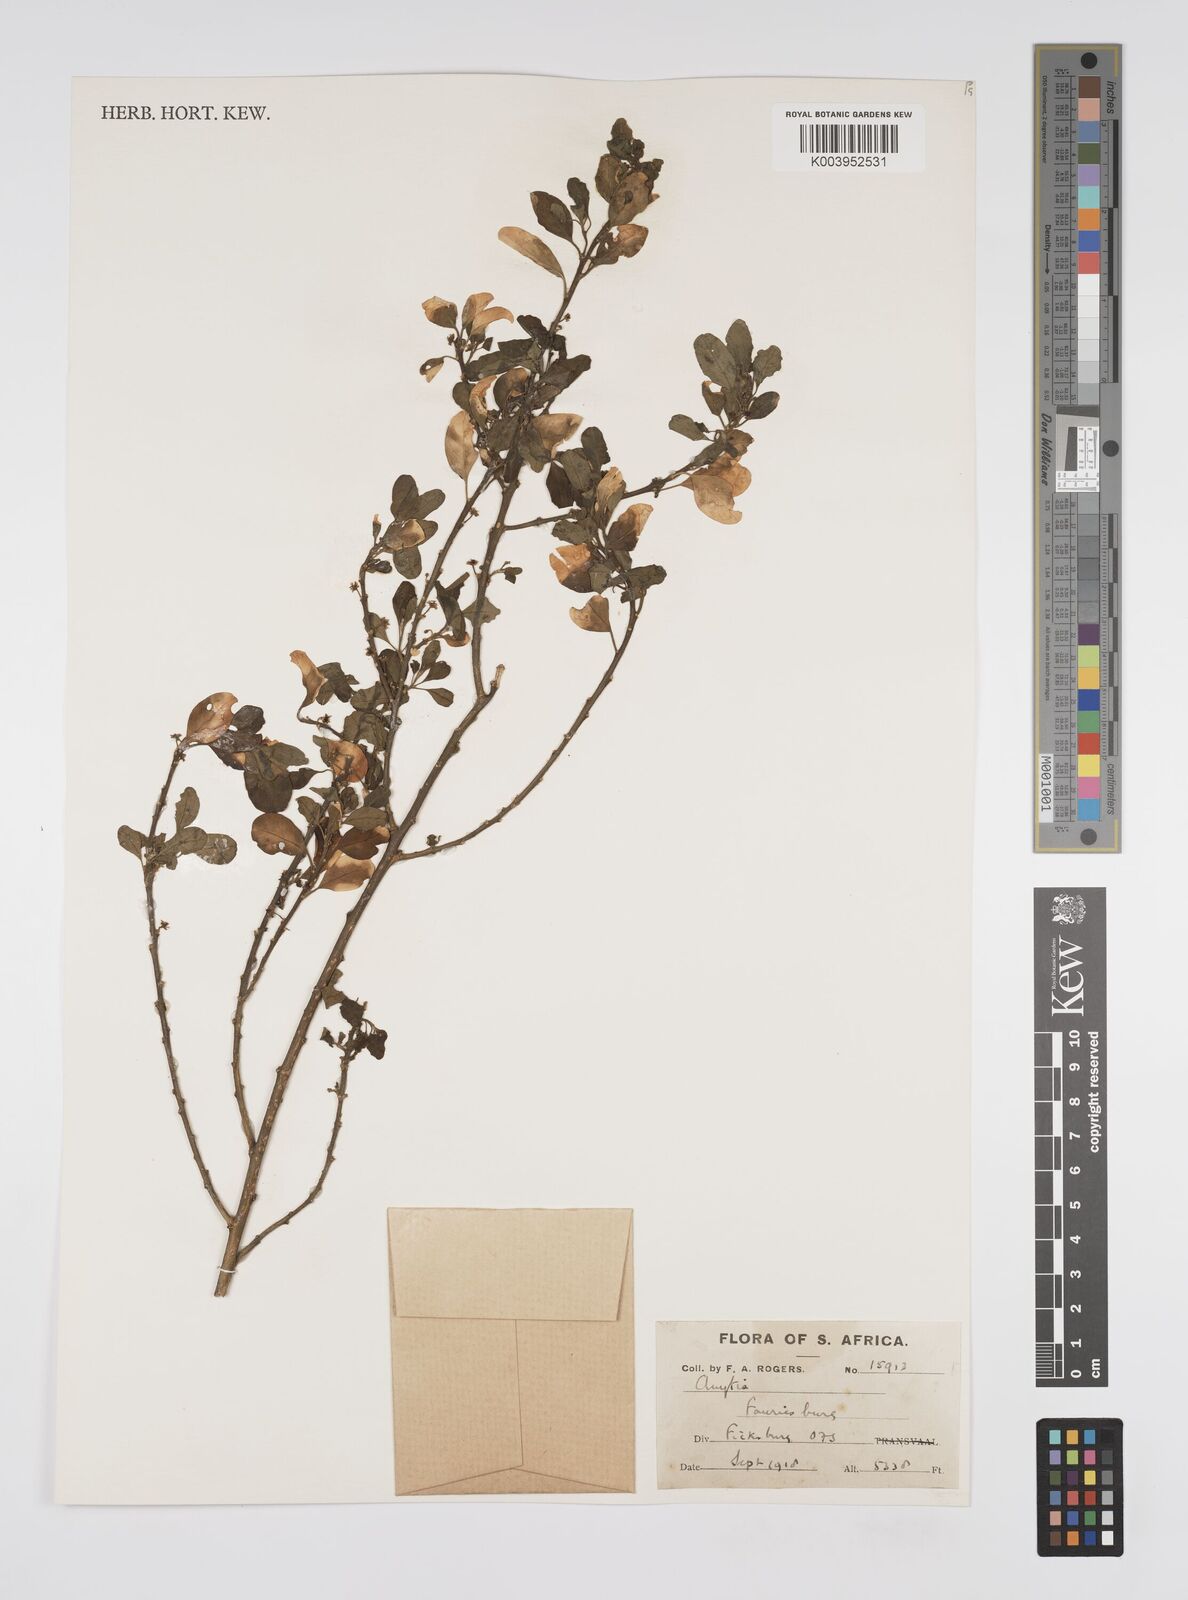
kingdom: Plantae
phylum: Tracheophyta
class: Magnoliopsida
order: Malpighiales
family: Peraceae
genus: Clutia
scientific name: Clutia
